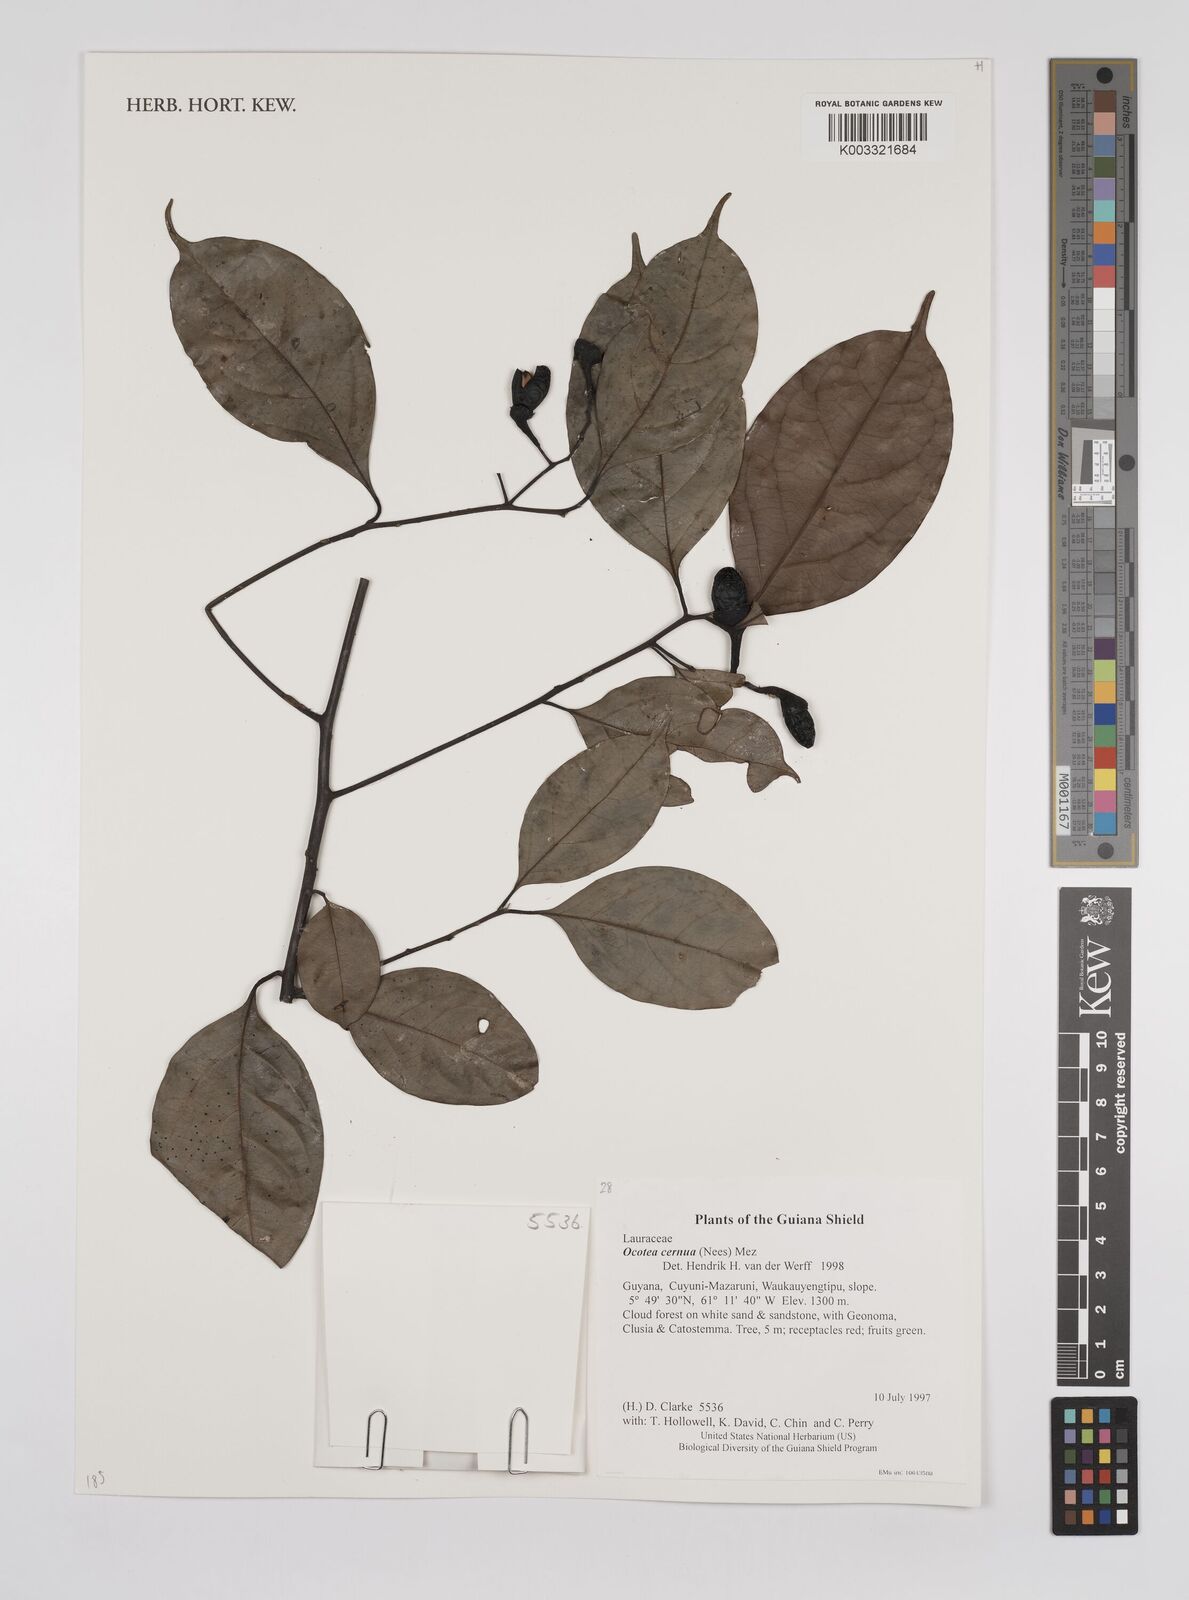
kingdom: Plantae
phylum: Tracheophyta
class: Magnoliopsida
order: Laurales
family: Lauraceae
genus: Ocotea
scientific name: Ocotea leptobotra
